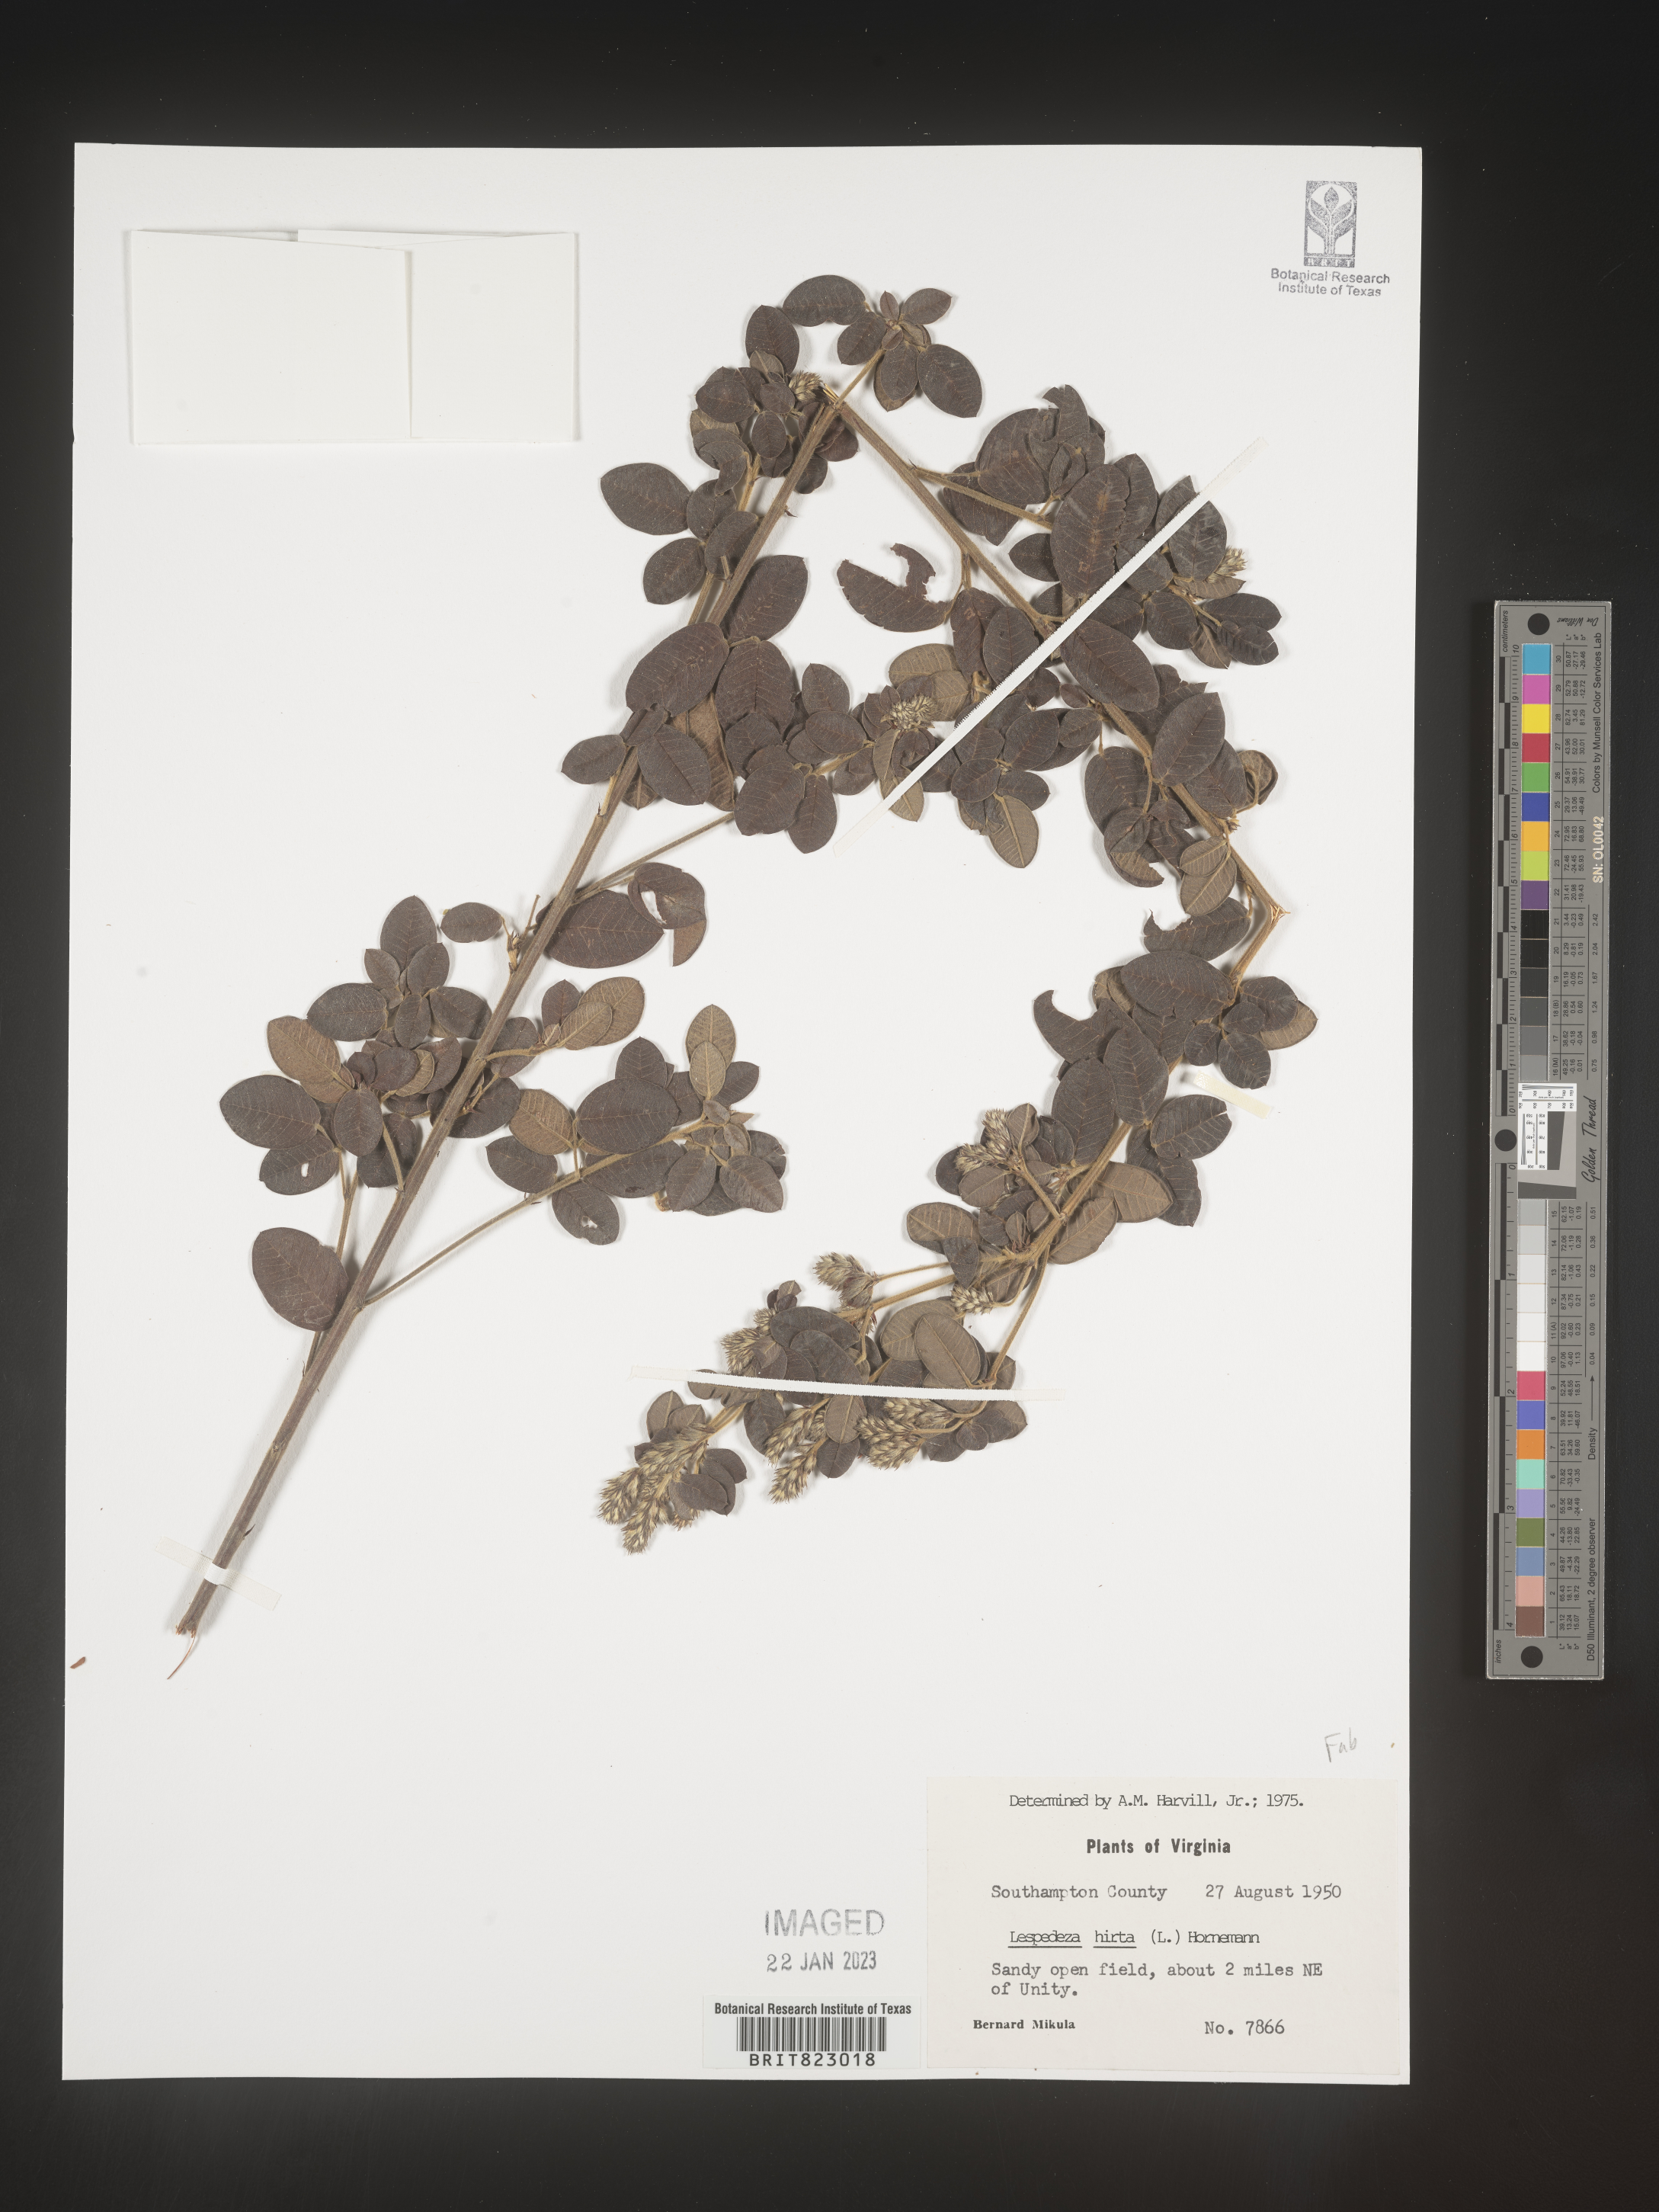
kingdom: Plantae
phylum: Tracheophyta
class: Magnoliopsida
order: Fabales
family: Fabaceae
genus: Lespedeza
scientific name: Lespedeza hirta
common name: Hairy lespedeza
